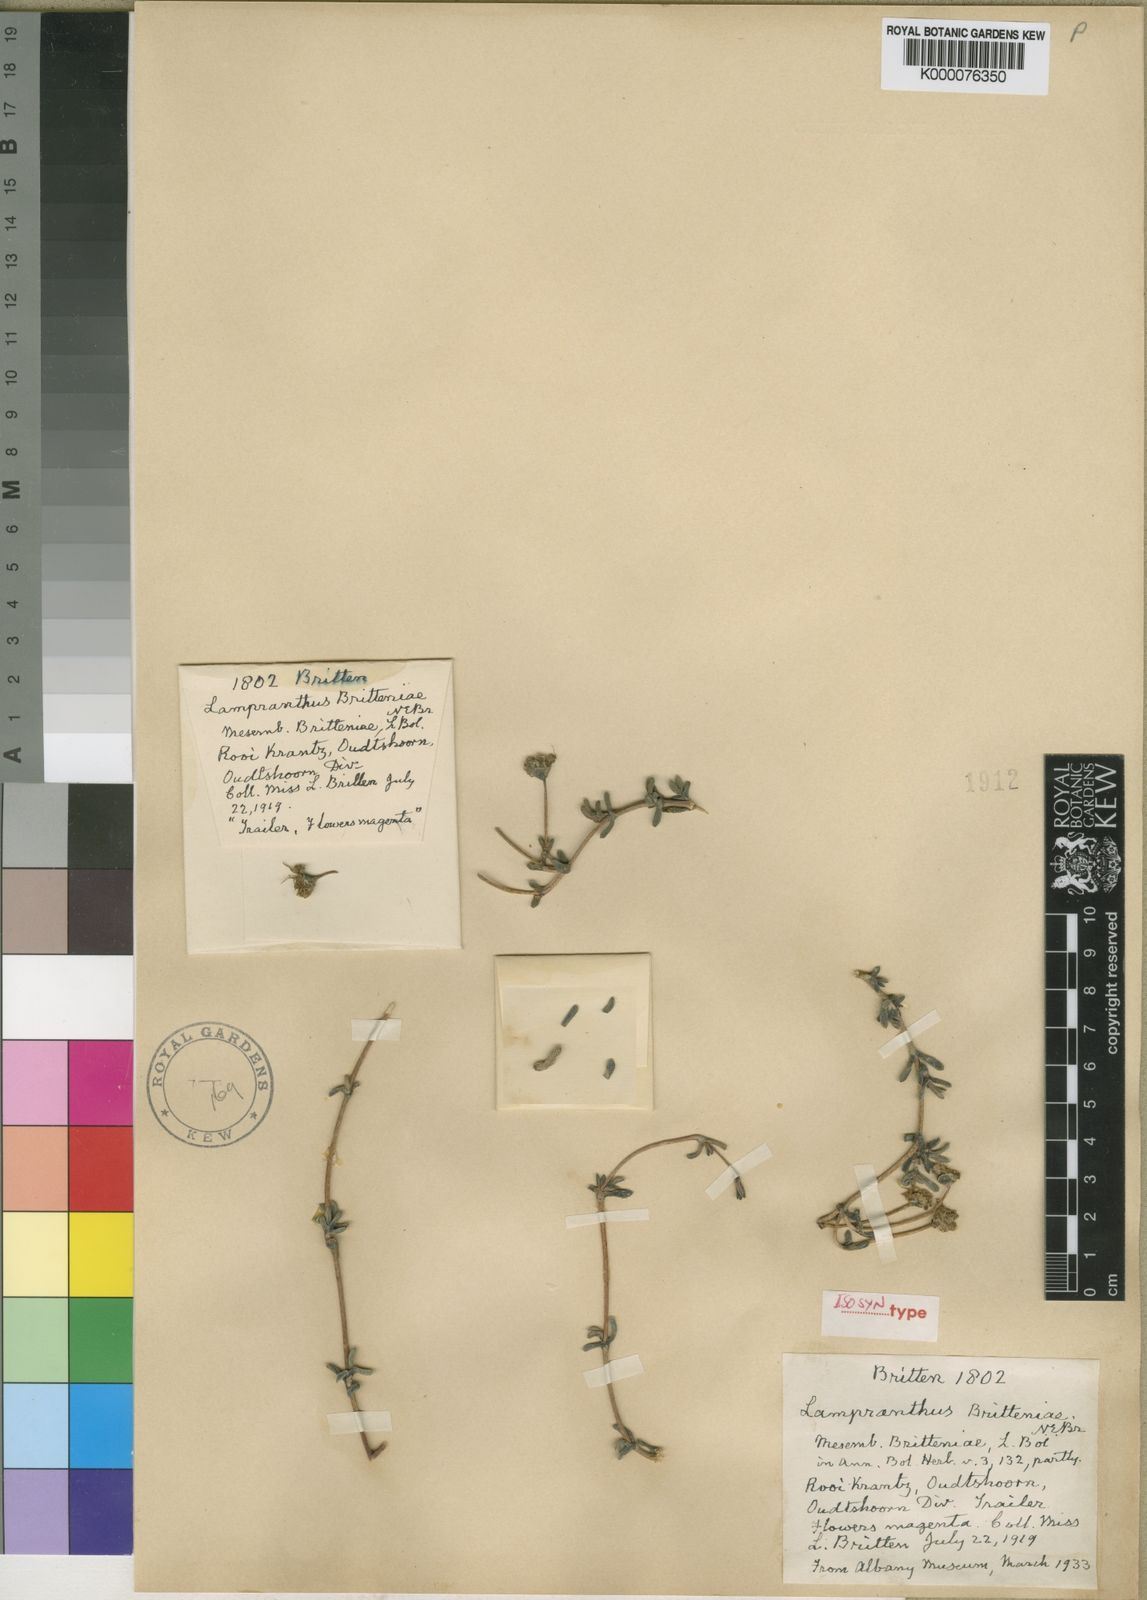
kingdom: Plantae
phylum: Tracheophyta
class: Magnoliopsida
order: Caryophyllales
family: Aizoaceae
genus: Leipoldtia
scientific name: Leipoldtia schultzei
